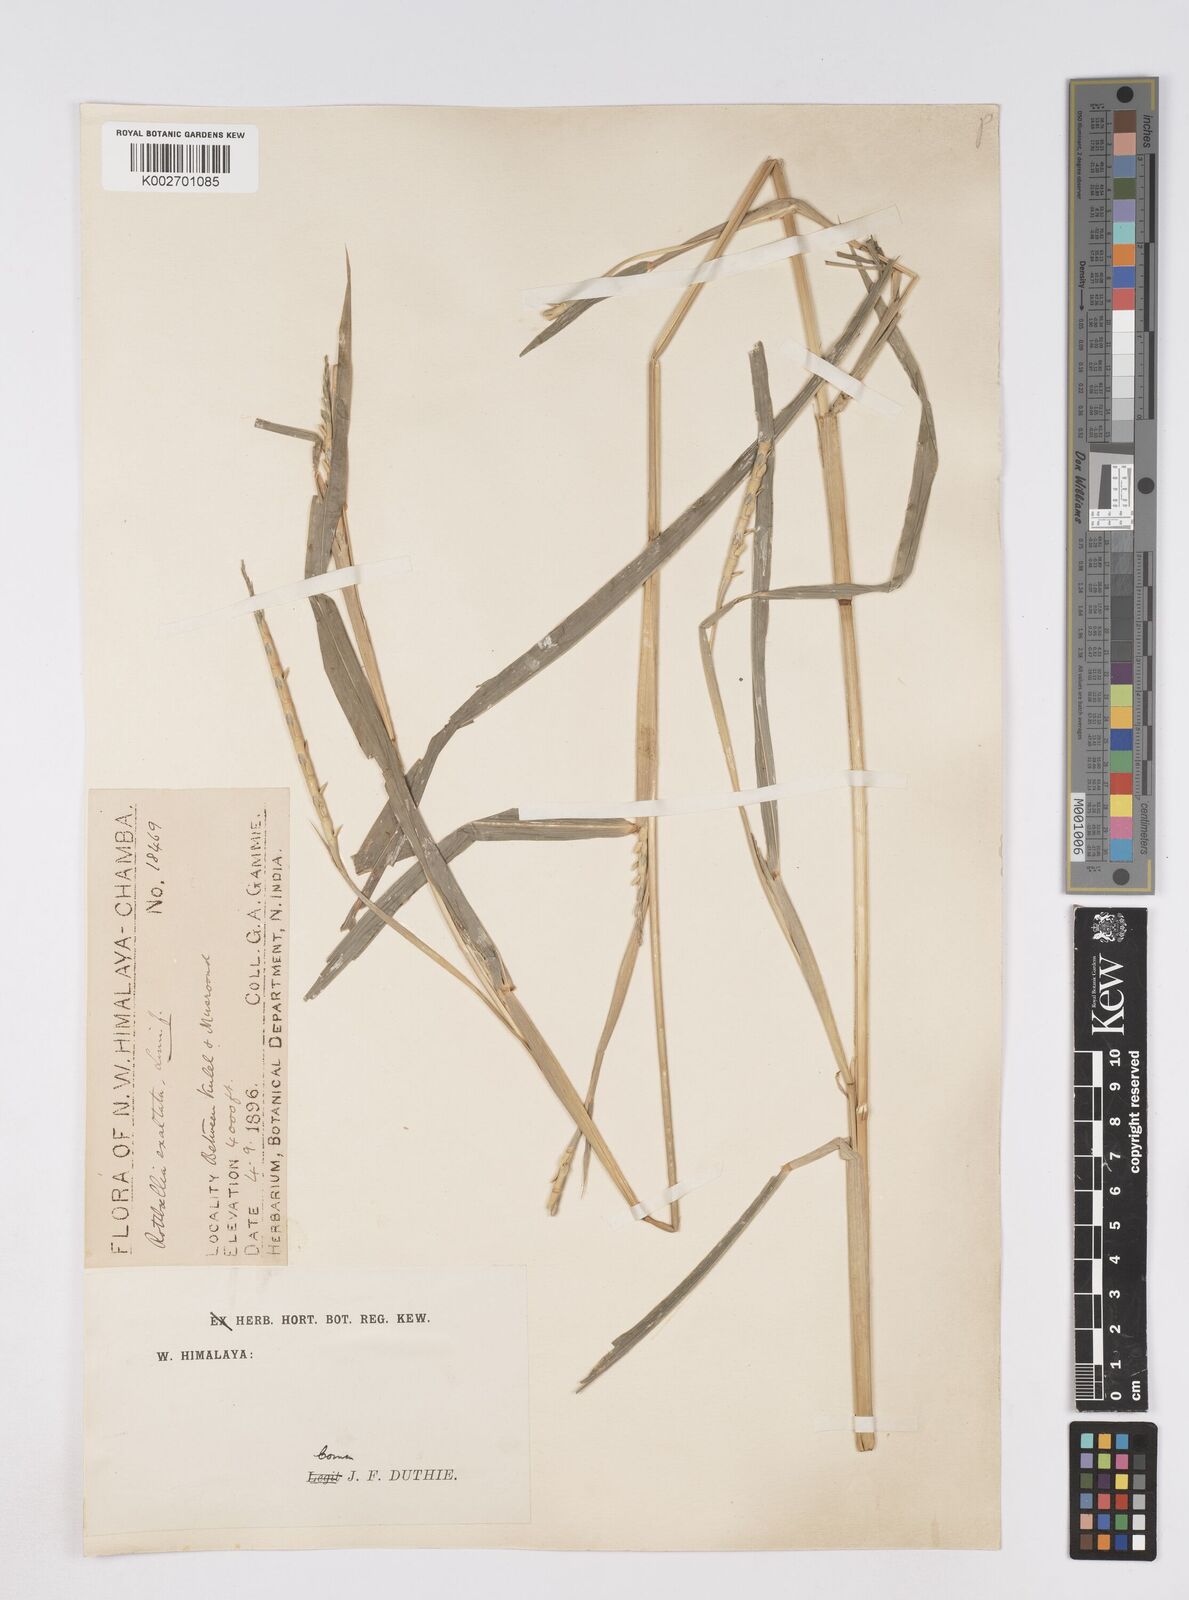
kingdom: Plantae
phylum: Tracheophyta
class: Liliopsida
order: Poales
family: Poaceae
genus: Ophiuros
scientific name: Ophiuros exaltatus
